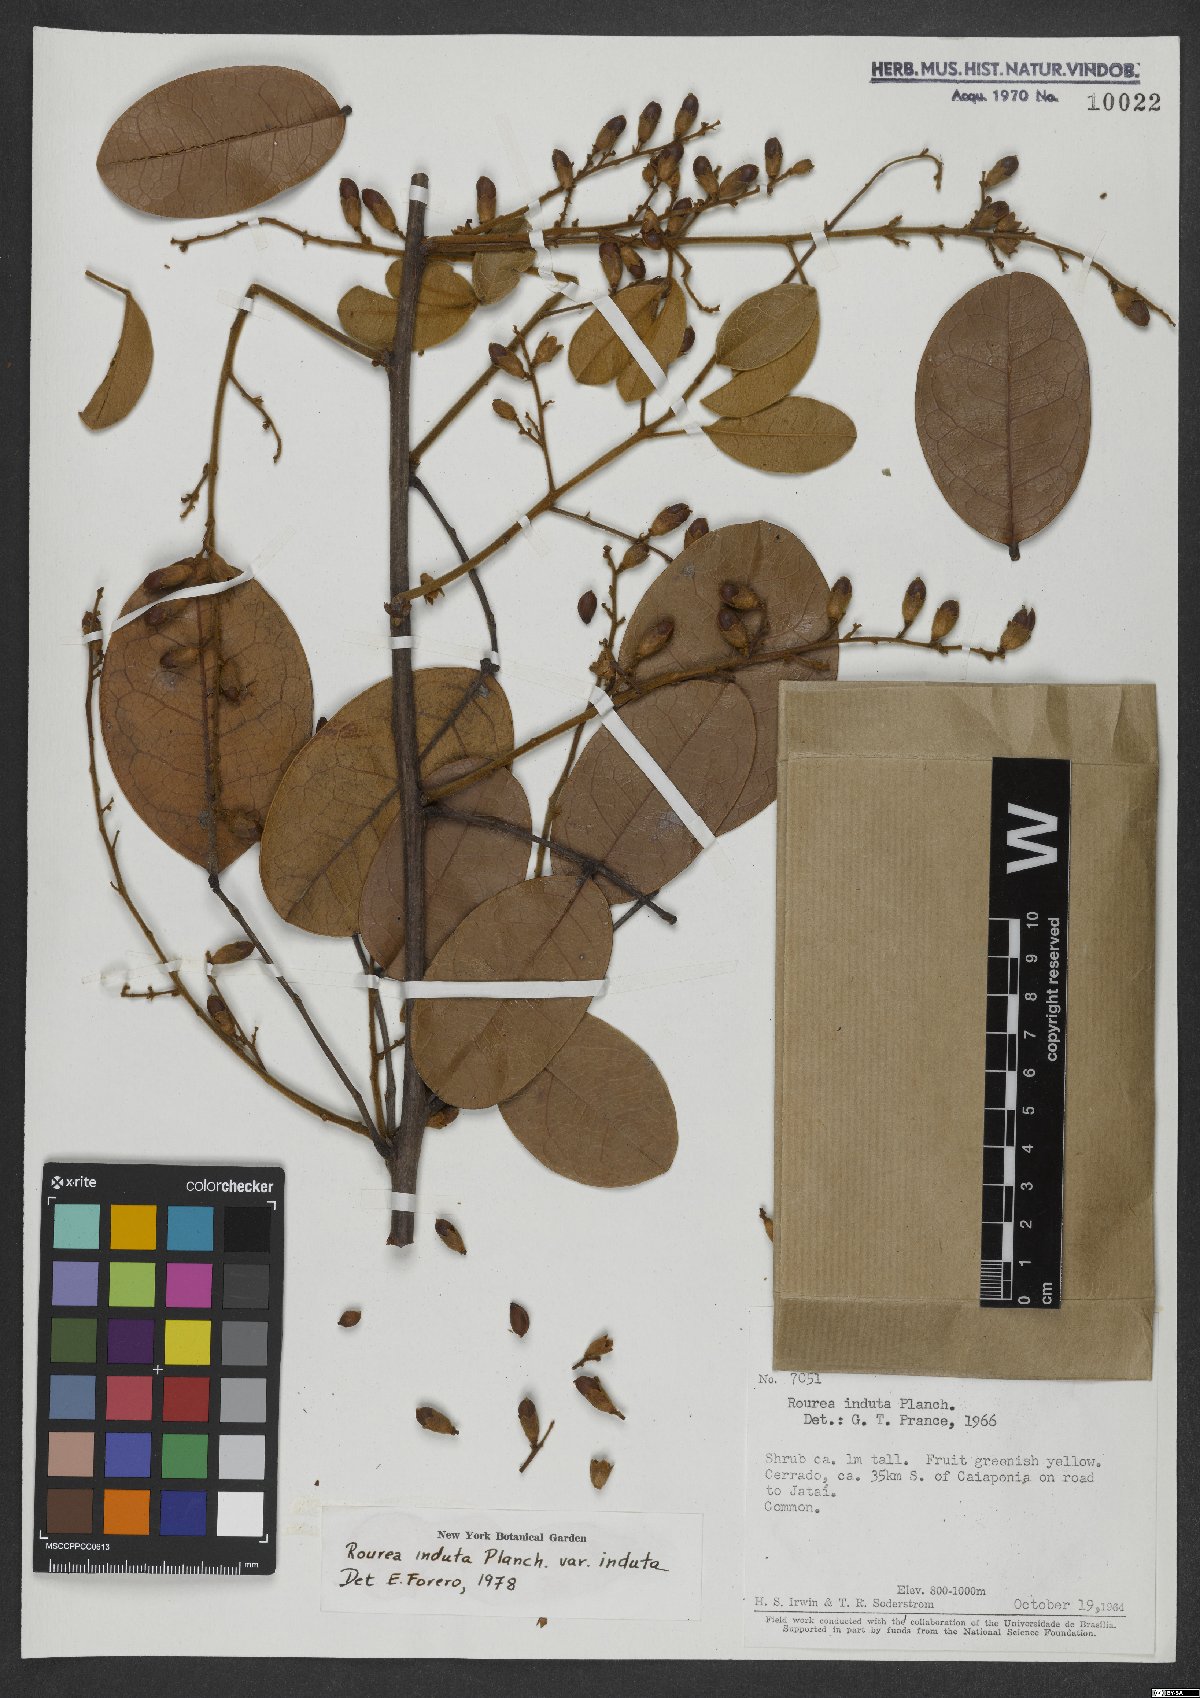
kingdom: Plantae
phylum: Tracheophyta
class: Magnoliopsida
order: Oxalidales
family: Connaraceae
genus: Rourea
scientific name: Rourea induta
